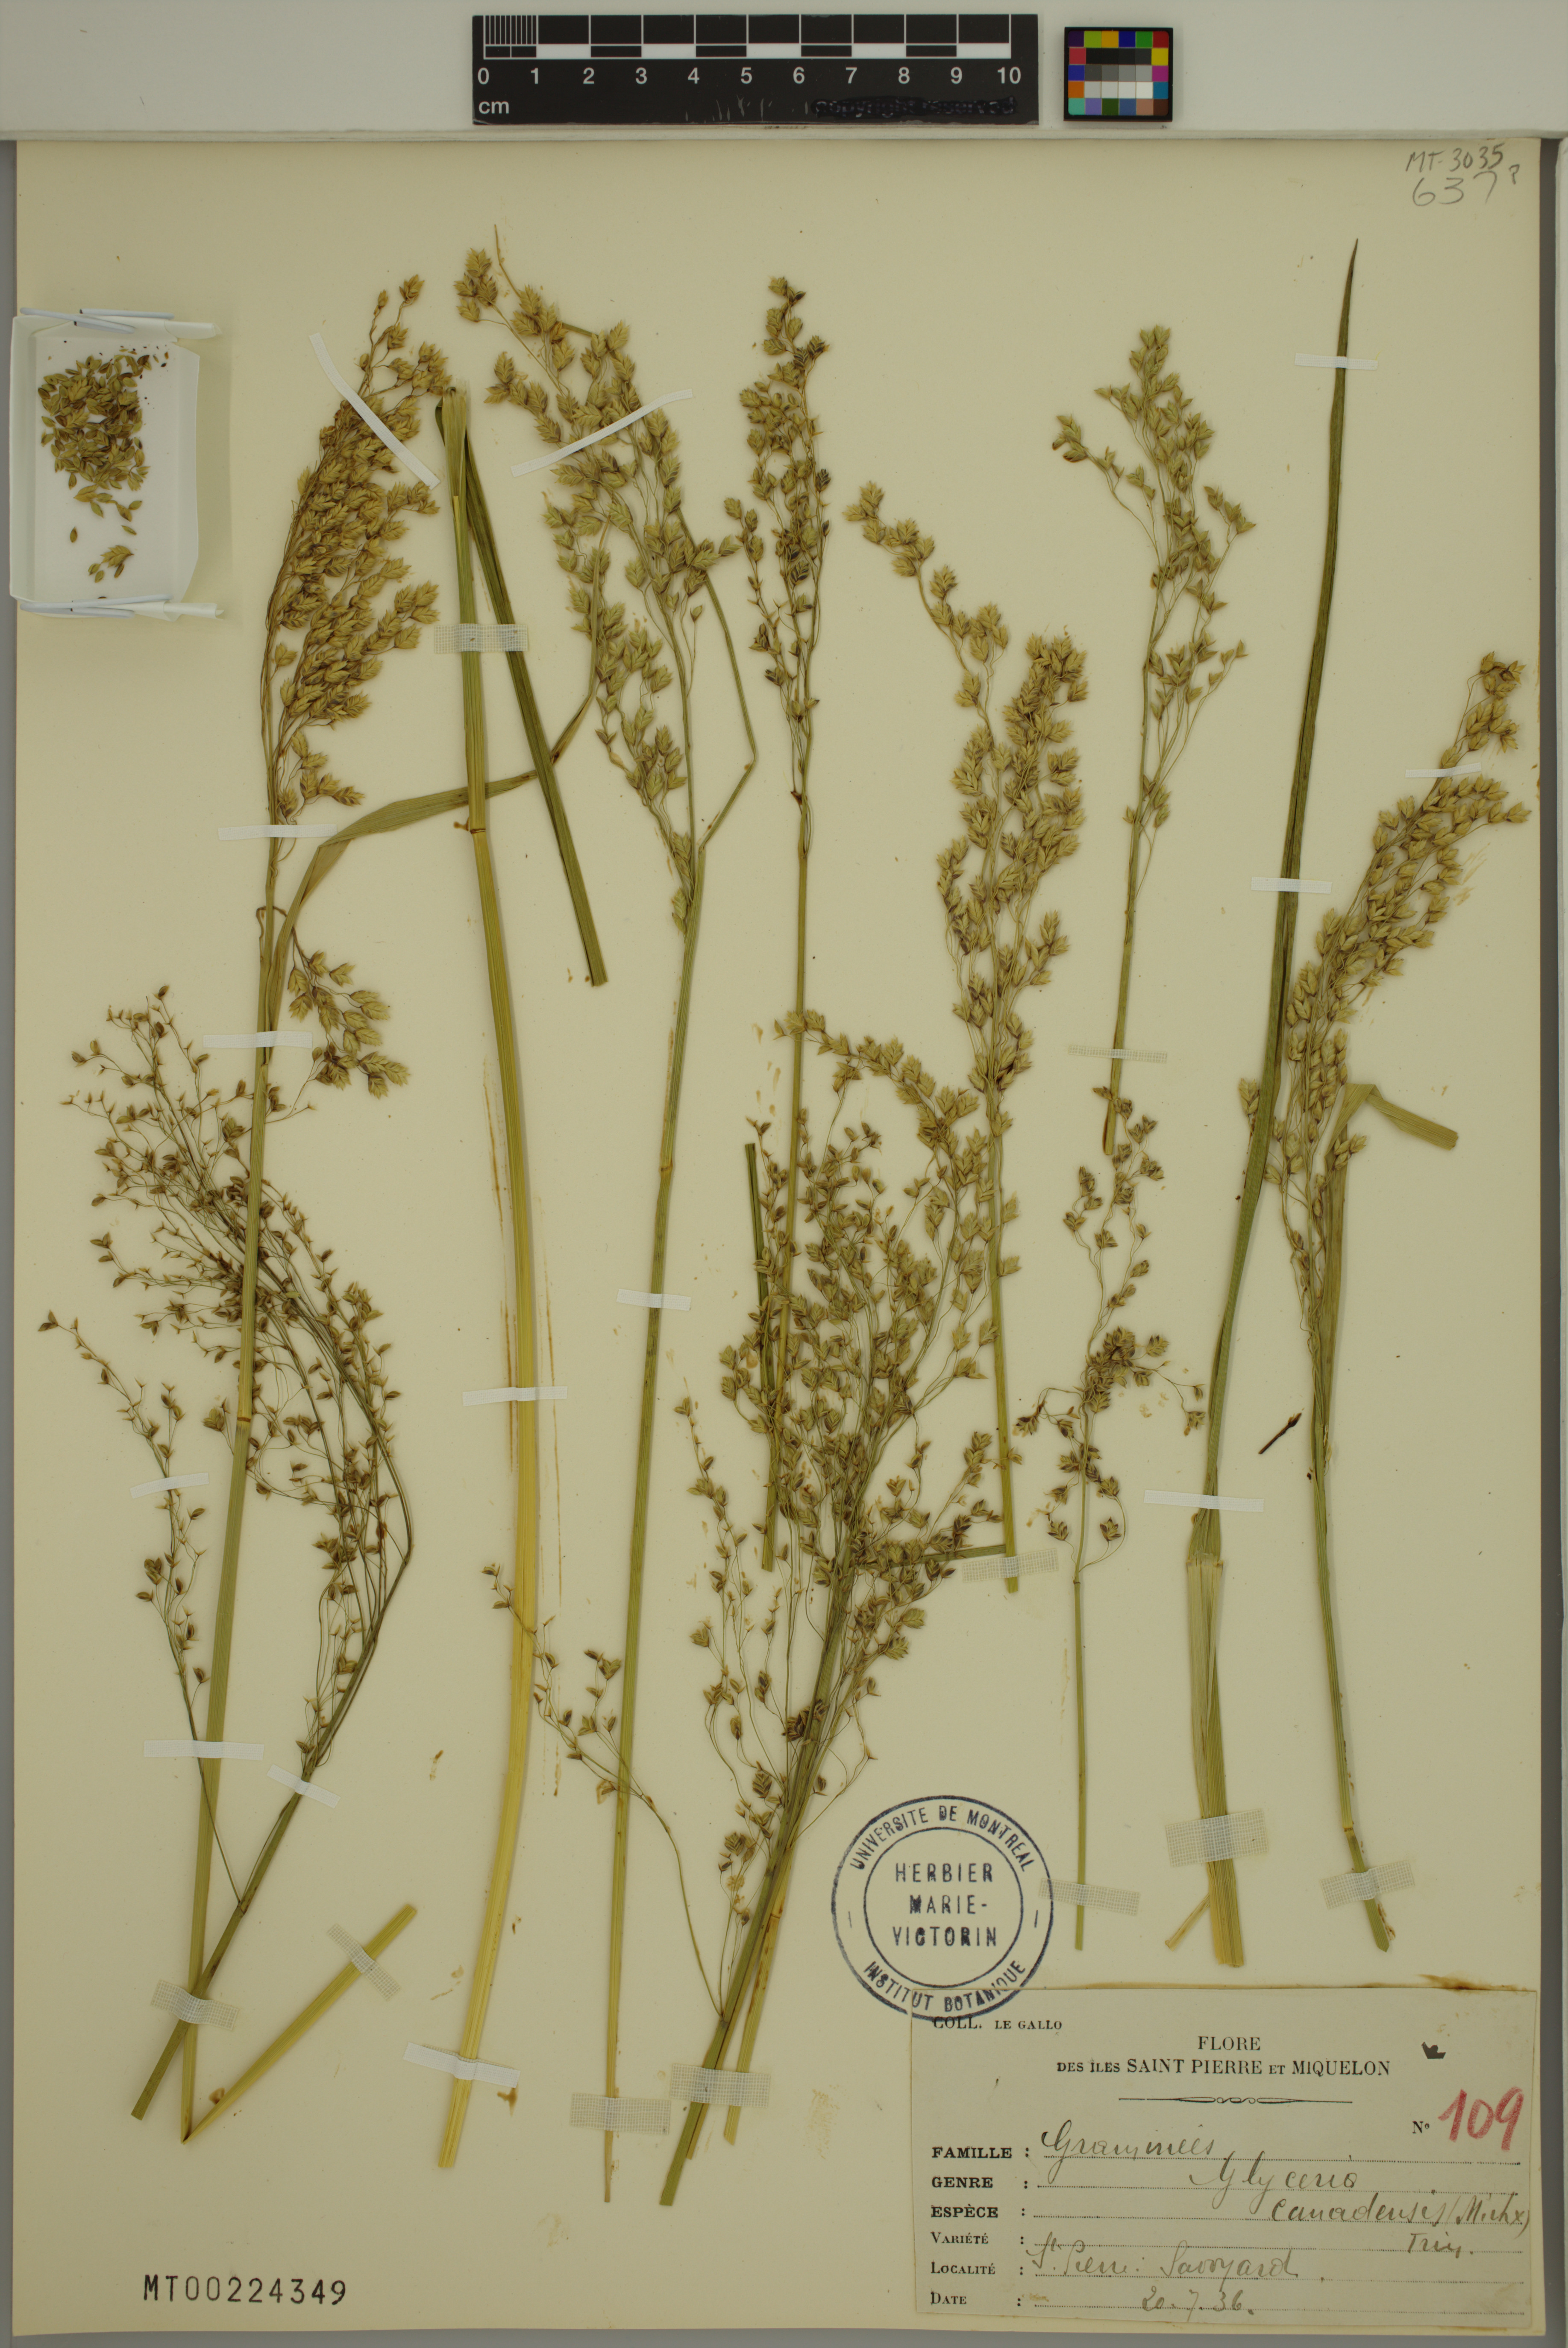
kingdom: Plantae
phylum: Tracheophyta
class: Liliopsida
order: Poales
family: Poaceae
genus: Glyceria
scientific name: Glyceria canadensis
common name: Canada mannagrass
